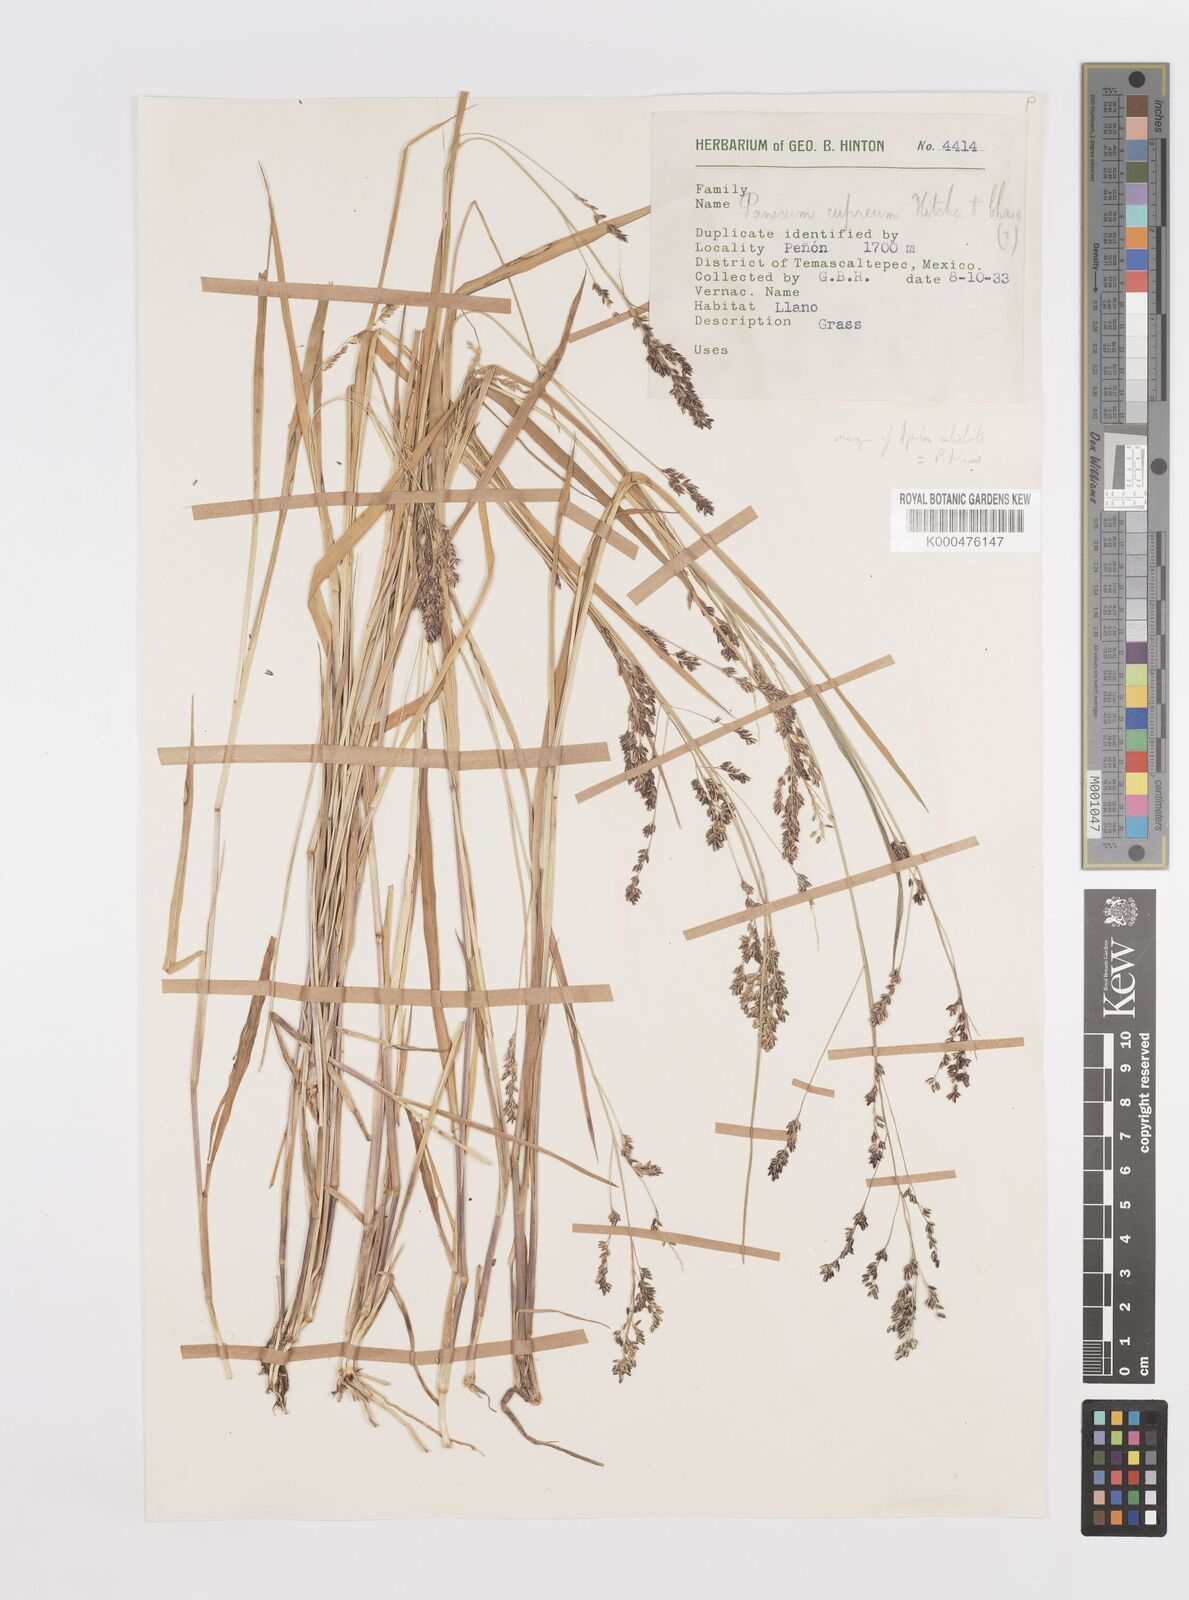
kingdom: Plantae
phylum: Tracheophyta
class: Liliopsida
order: Poales
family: Poaceae
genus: Steinchisma
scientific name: Steinchisma cupreum
